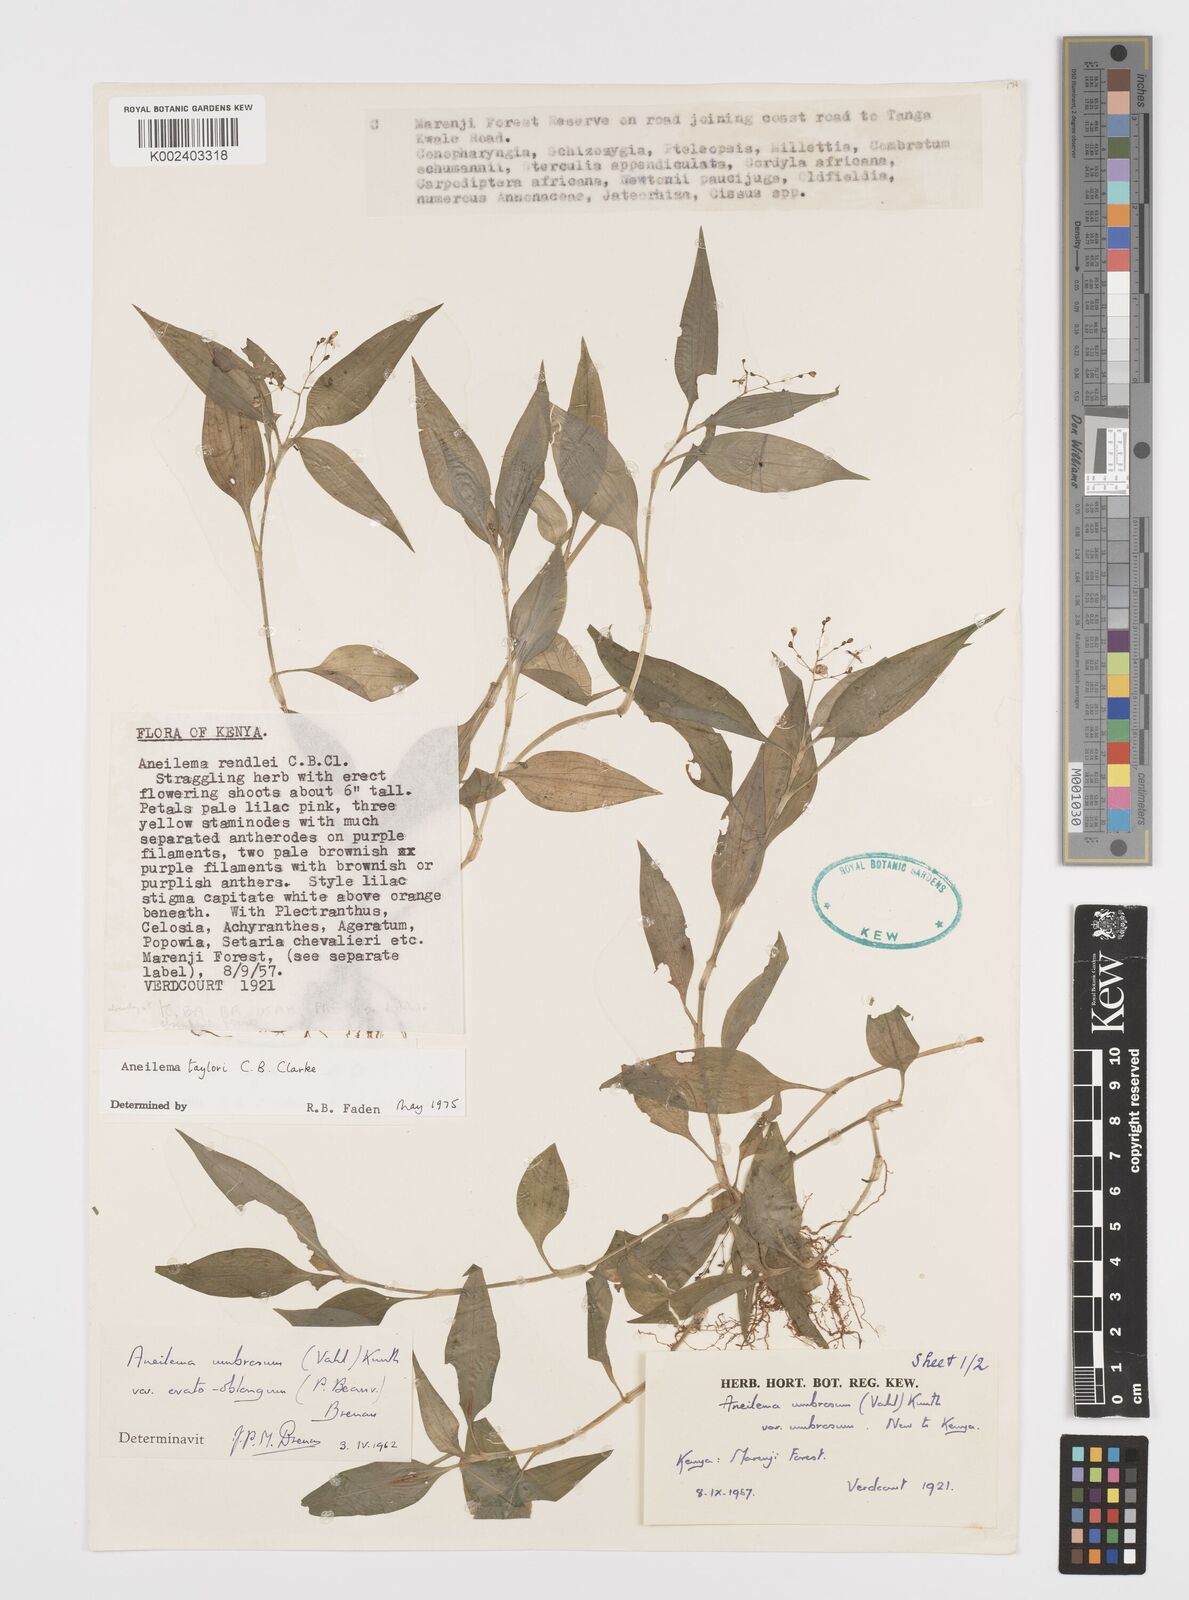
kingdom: Plantae
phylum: Tracheophyta
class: Liliopsida
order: Commelinales
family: Commelinaceae
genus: Aneilema
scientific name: Aneilema taylorii
